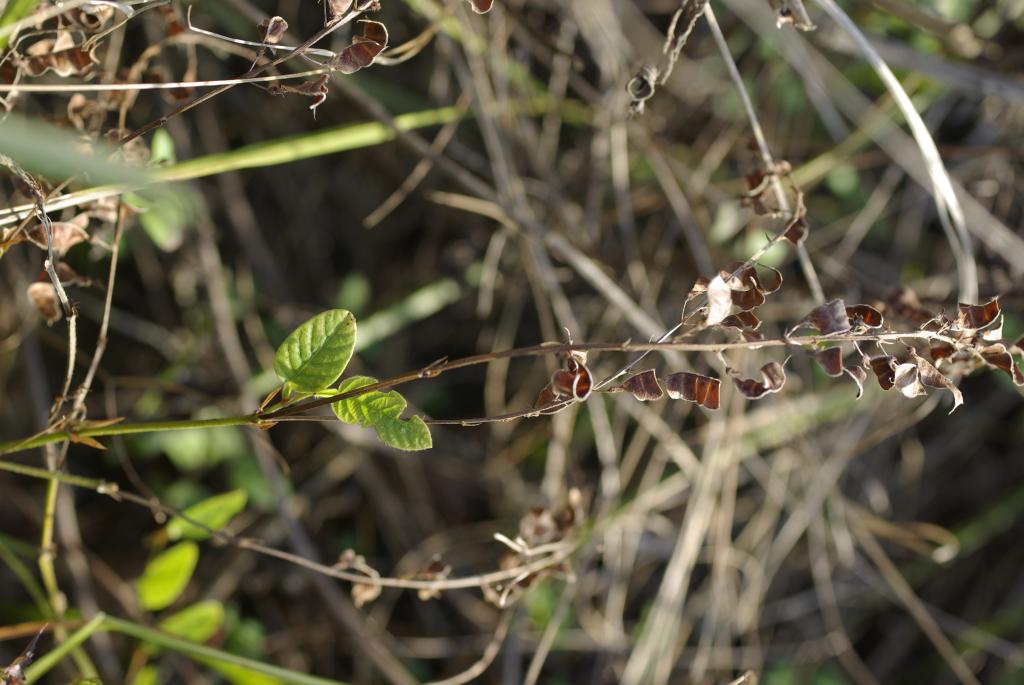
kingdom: Plantae
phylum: Tracheophyta
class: Magnoliopsida
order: Fabales
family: Fabaceae
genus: Tadehagi
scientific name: Tadehagi pseudotriquetrum
